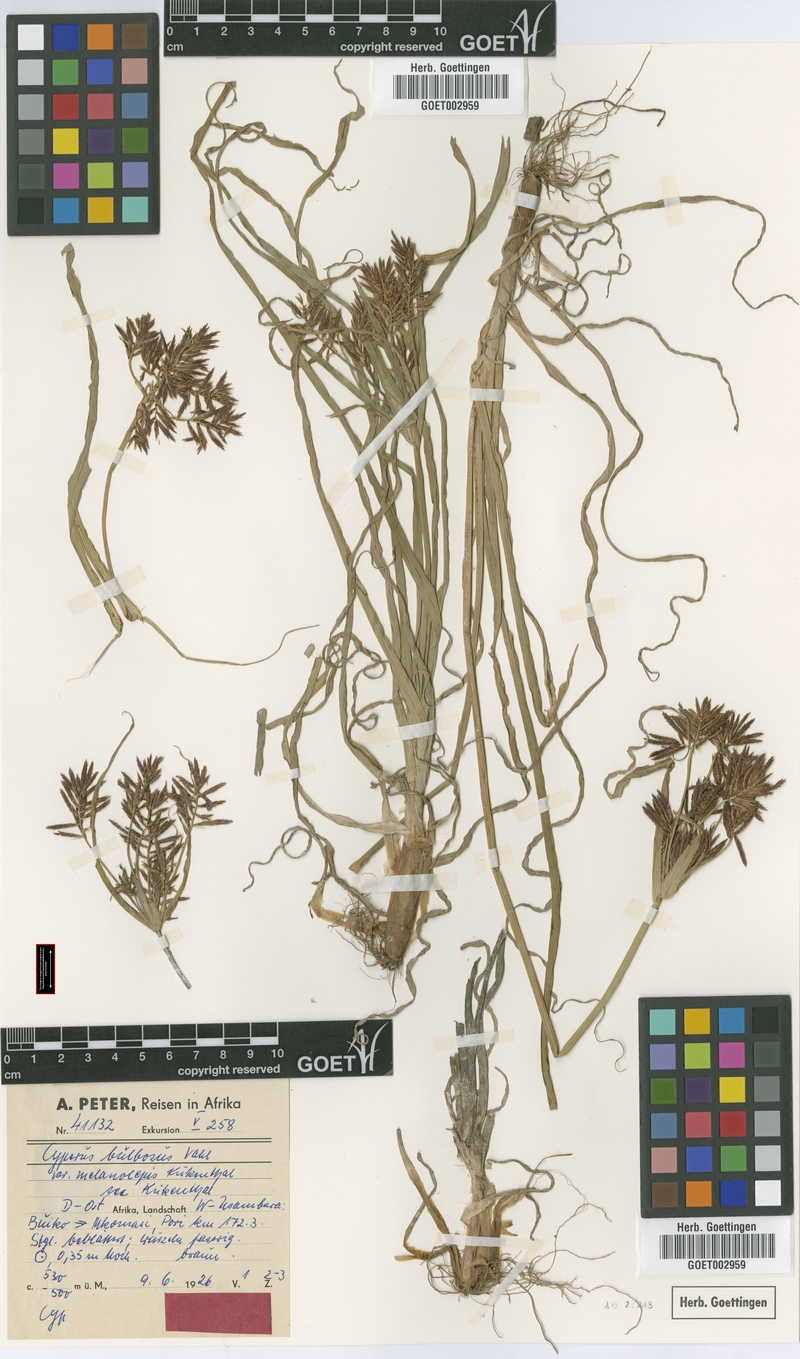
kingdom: Plantae
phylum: Tracheophyta
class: Liliopsida
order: Poales
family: Cyperaceae
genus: Cyperus
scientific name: Cyperus bulbosus
